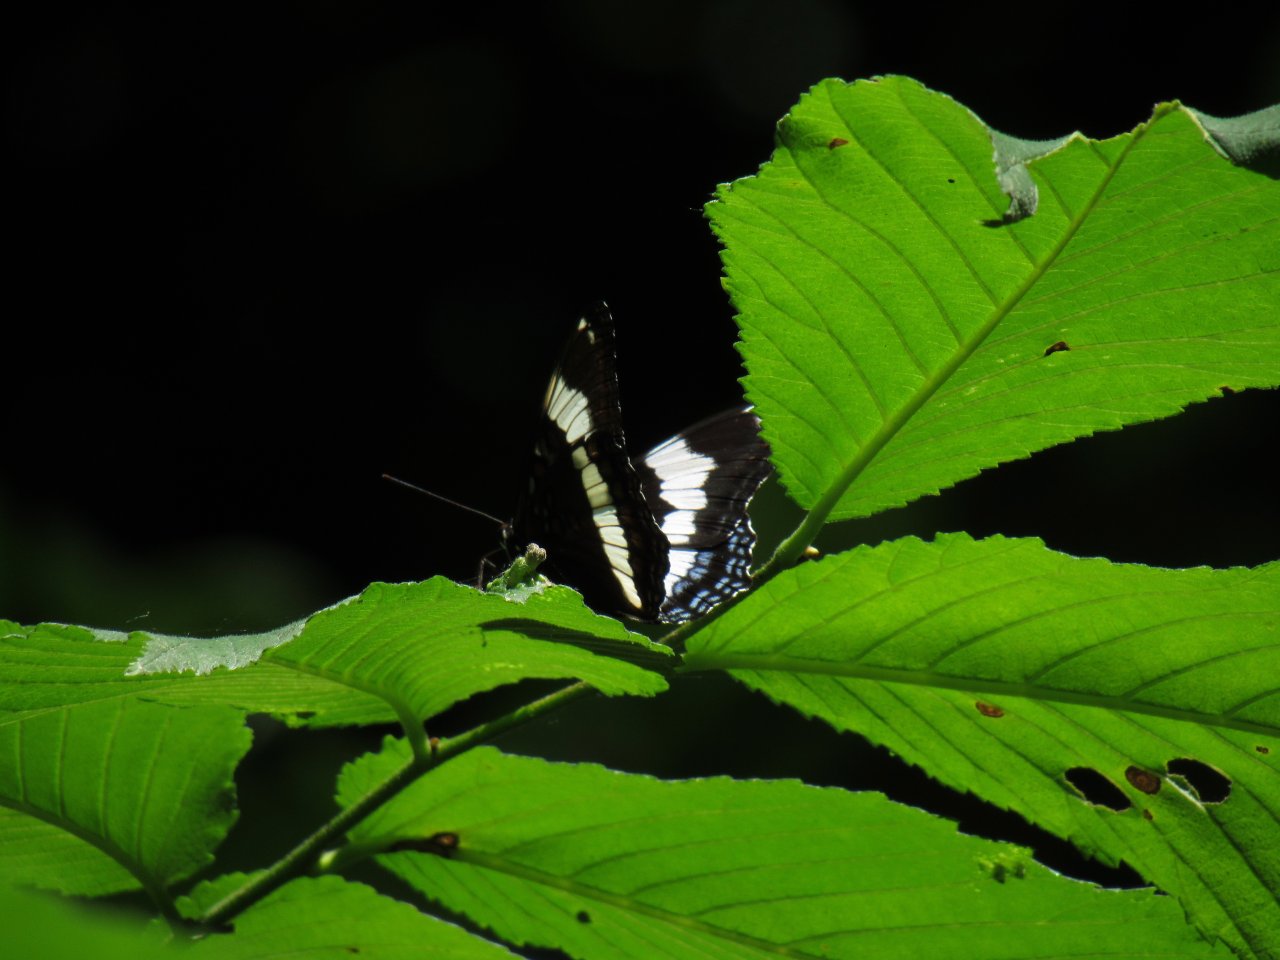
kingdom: Animalia
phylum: Arthropoda
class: Insecta
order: Lepidoptera
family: Nymphalidae
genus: Limenitis
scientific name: Limenitis arthemis
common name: Red-spotted Admiral
